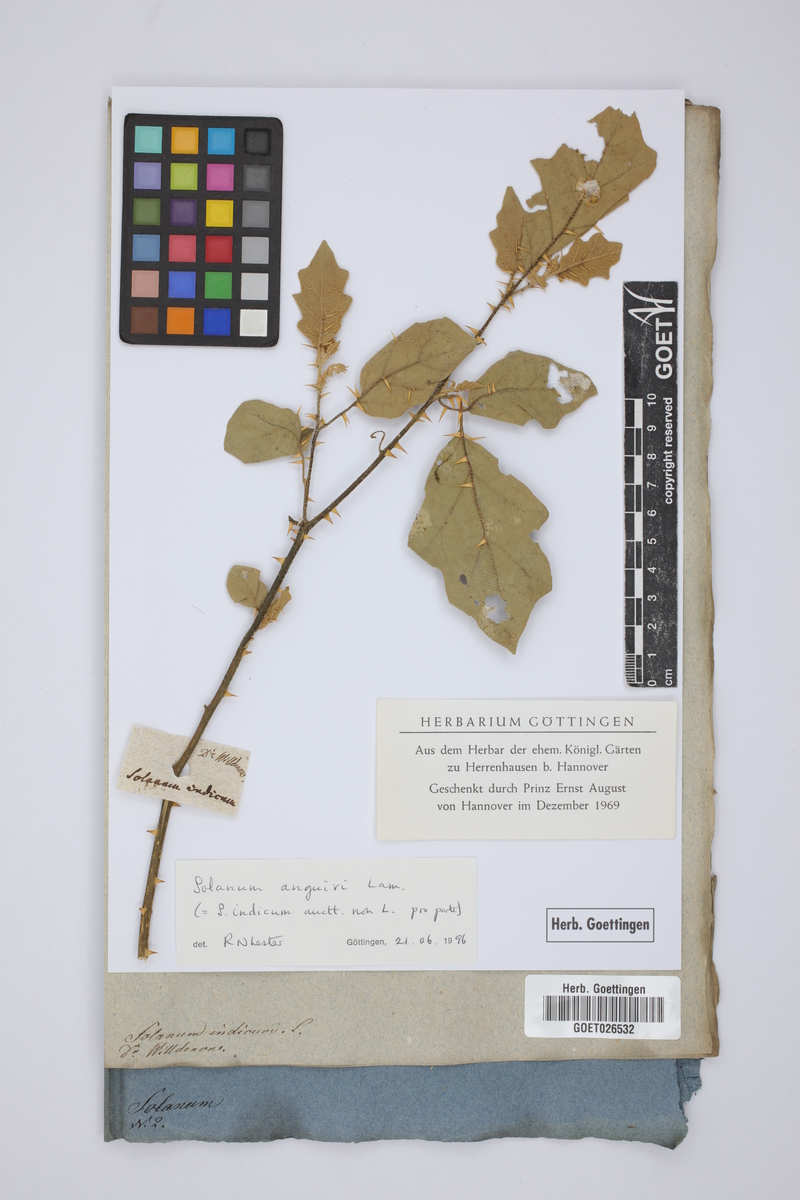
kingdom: Plantae
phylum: Tracheophyta
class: Magnoliopsida
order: Solanales
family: Solanaceae
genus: Solanum
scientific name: Solanum anguivi
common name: Forest bitterberry
